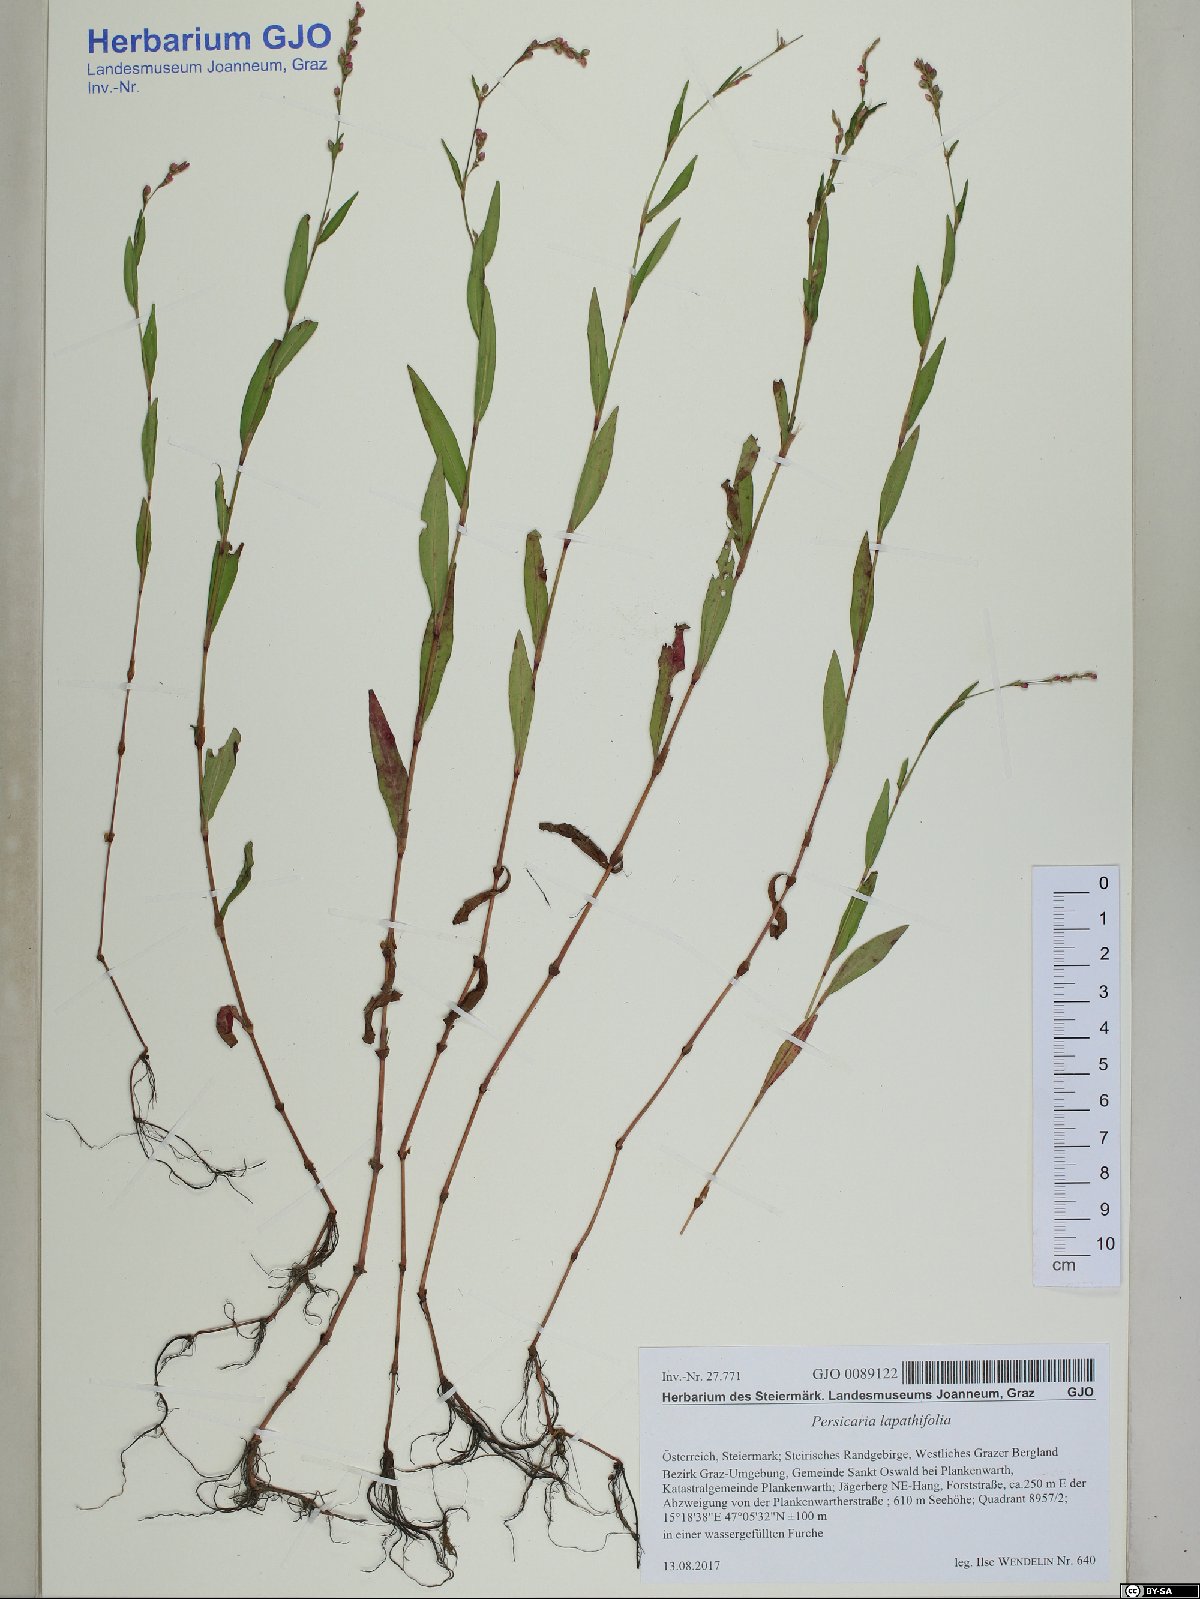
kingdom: Plantae
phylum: Tracheophyta
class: Magnoliopsida
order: Caryophyllales
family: Polygonaceae
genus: Persicaria
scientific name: Persicaria minor
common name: Small water-pepper
